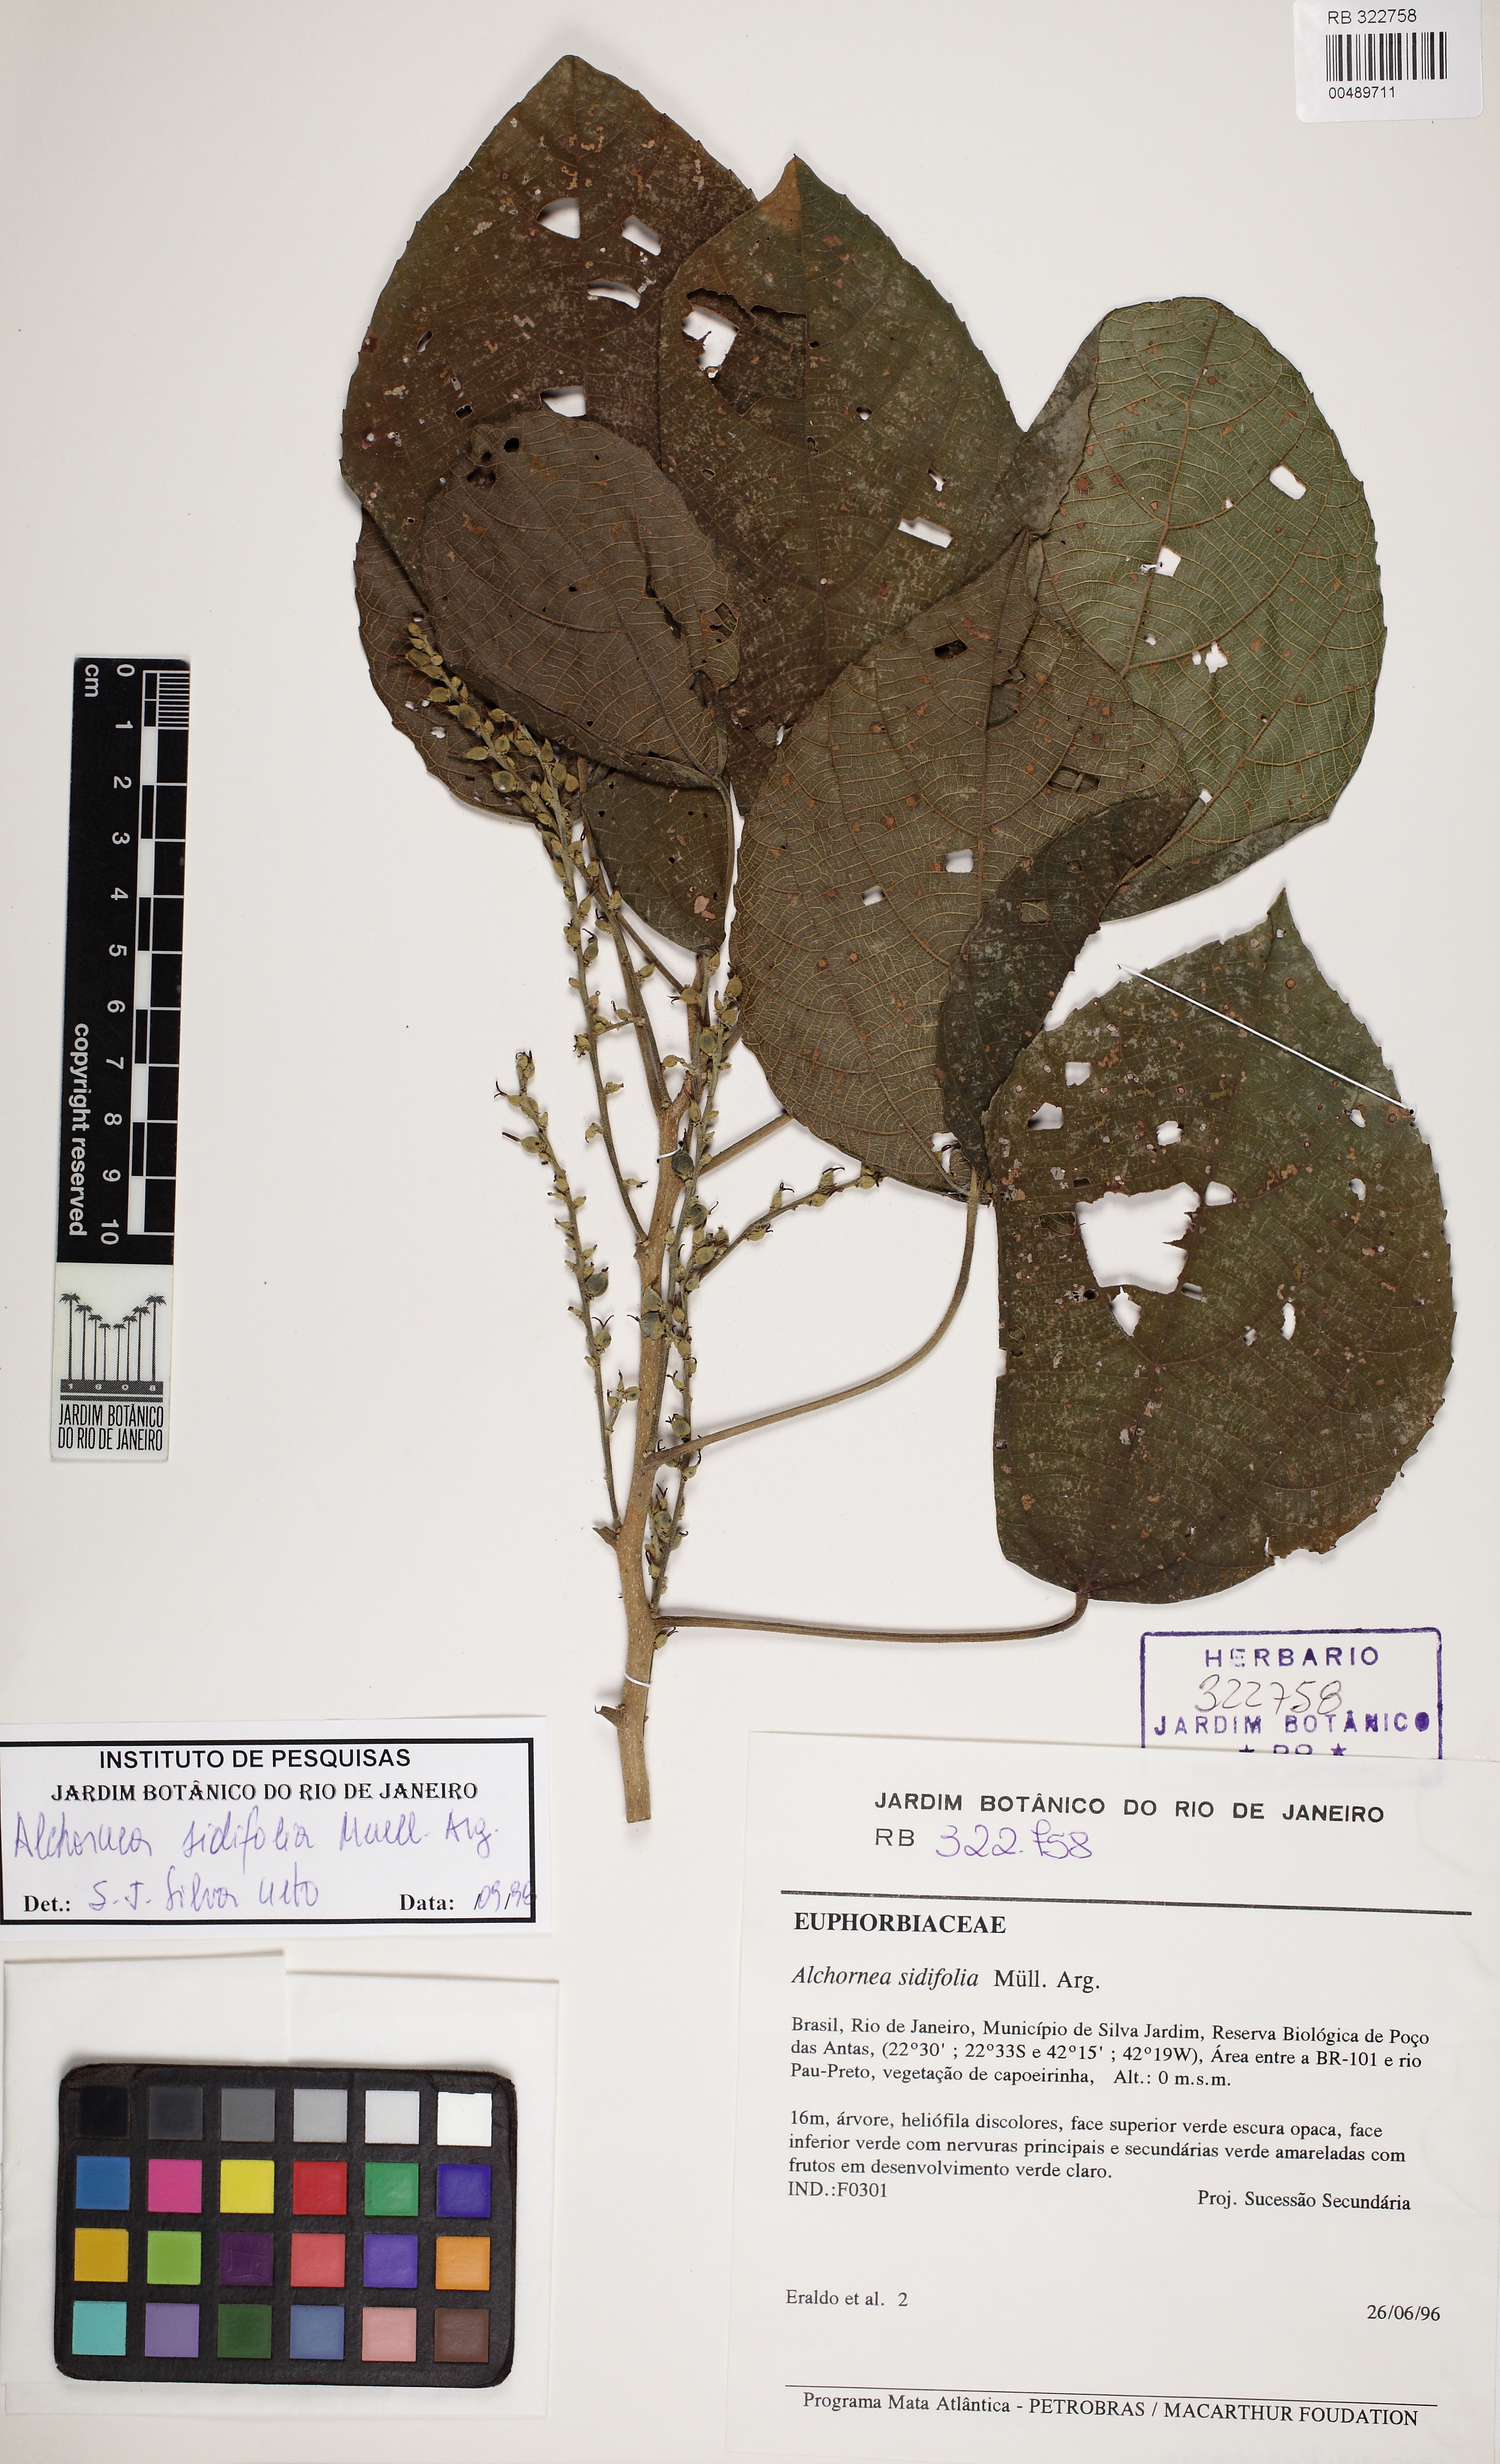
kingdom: Plantae
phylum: Tracheophyta
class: Magnoliopsida
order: Malpighiales
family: Euphorbiaceae
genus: Alchornea
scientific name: Alchornea sidifolia
